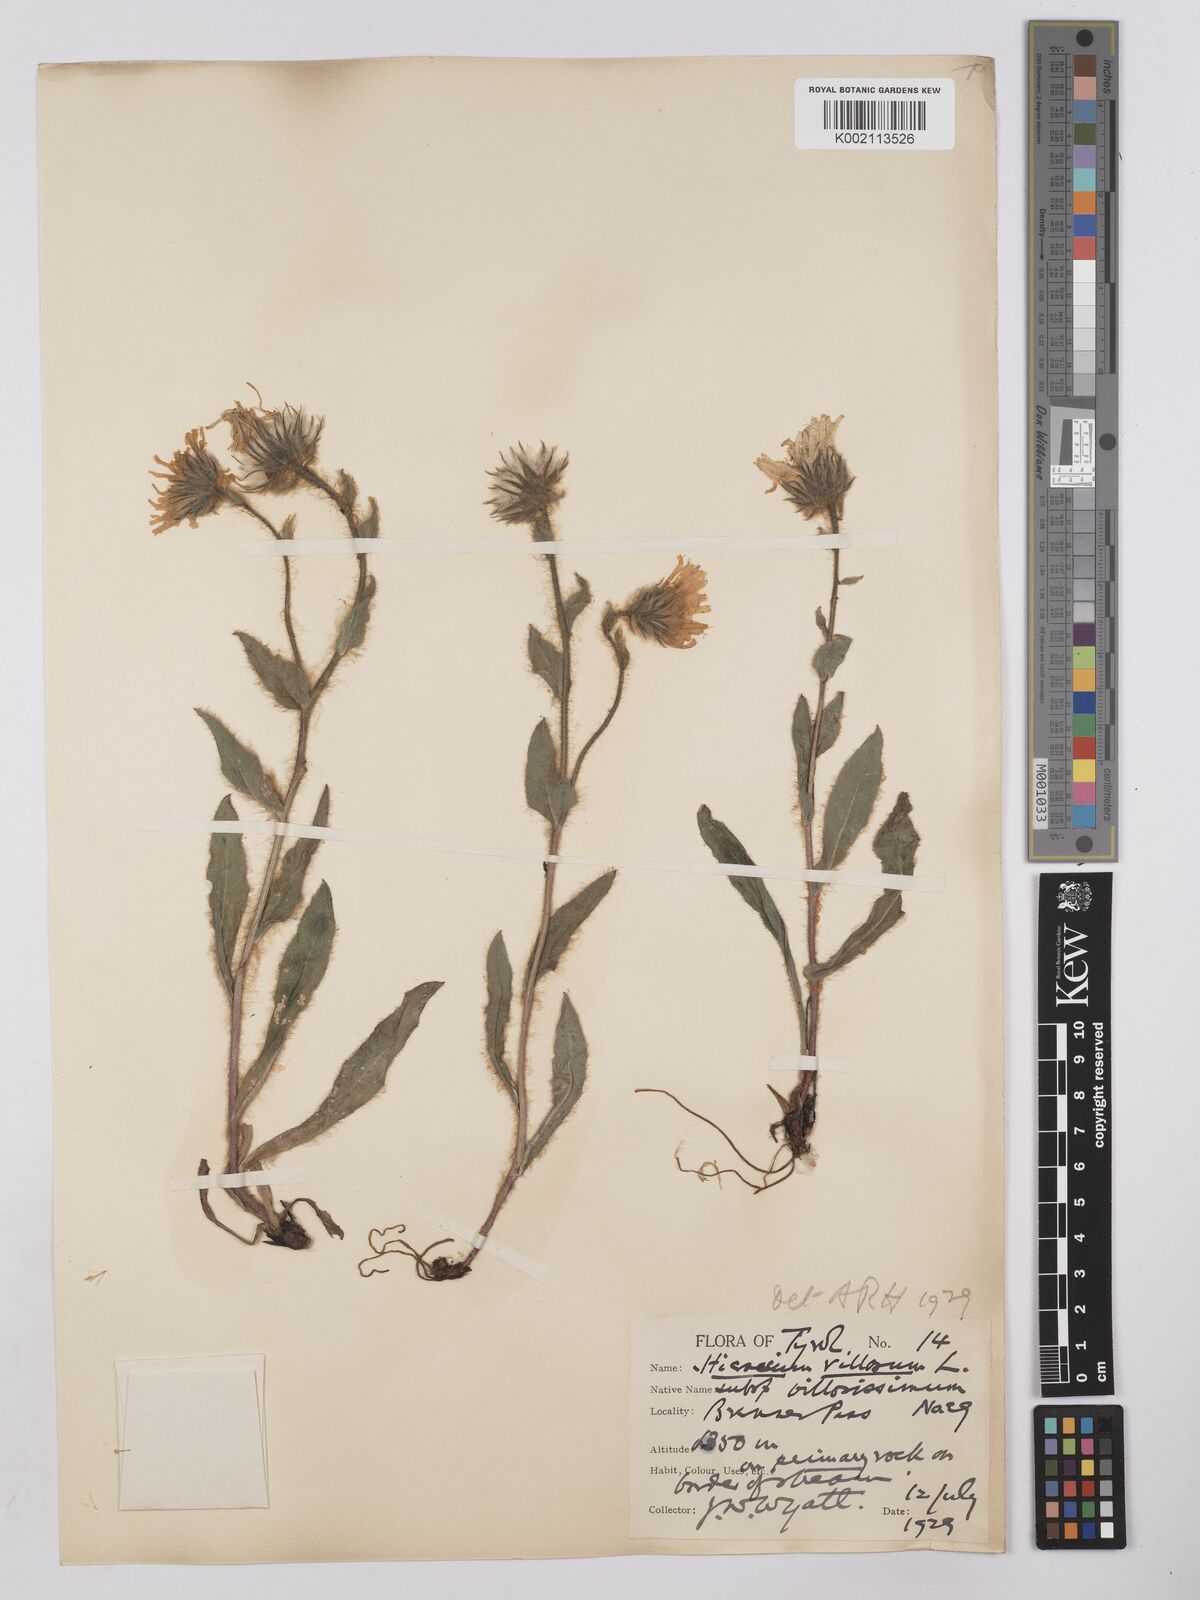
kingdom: Plantae
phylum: Tracheophyta
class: Magnoliopsida
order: Asterales
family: Asteraceae
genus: Hieracium
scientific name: Hieracium
